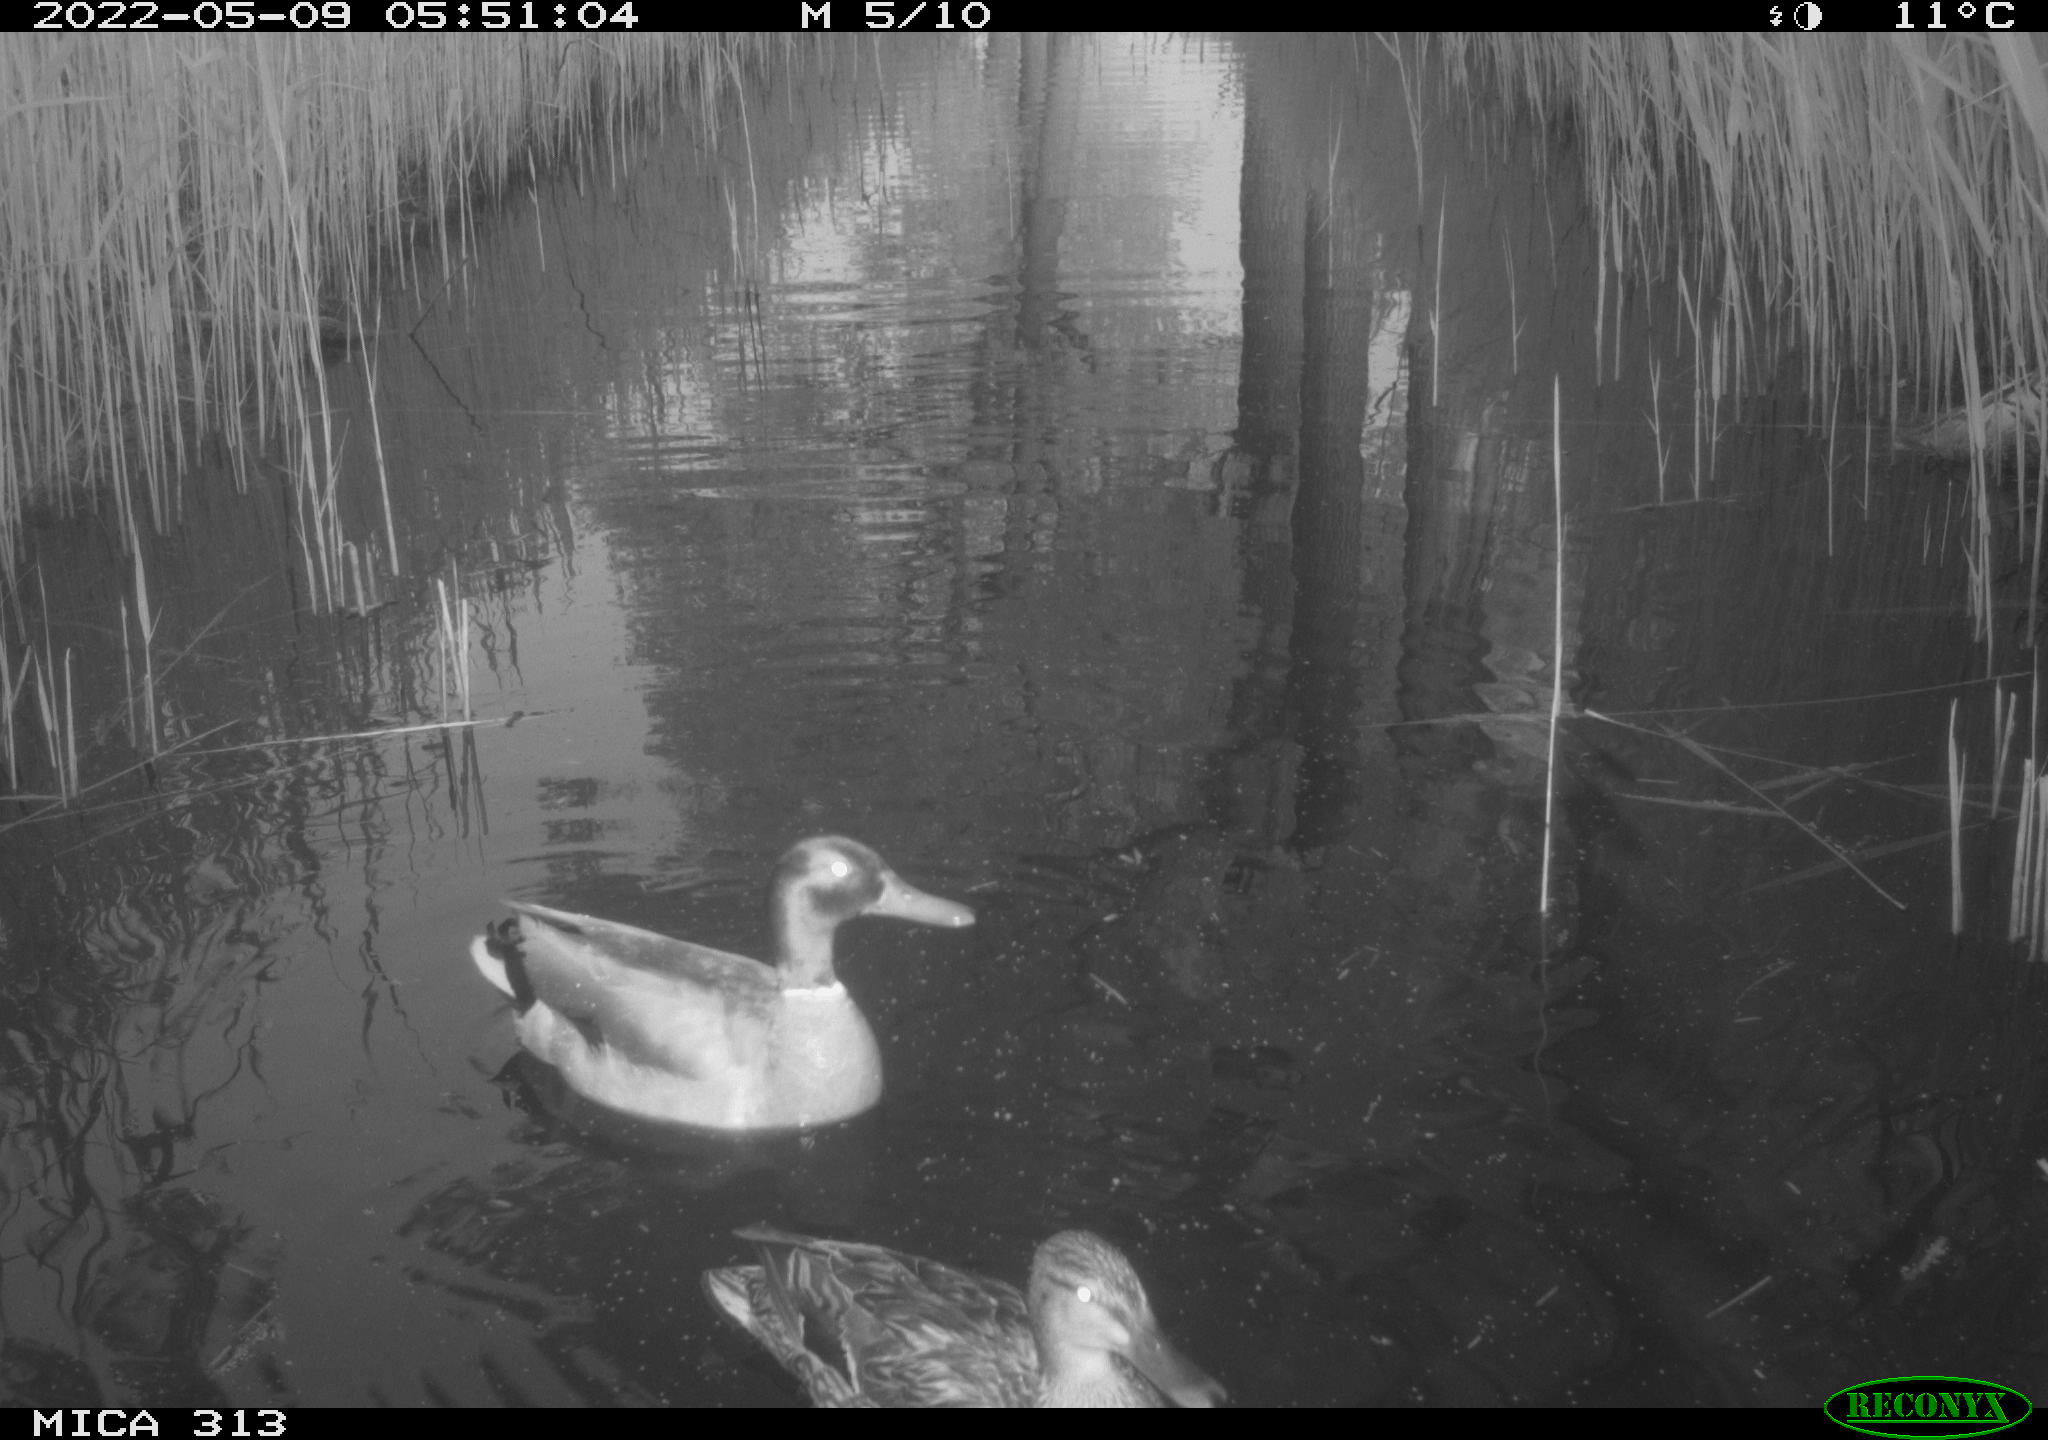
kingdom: Animalia
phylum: Chordata
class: Aves
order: Anseriformes
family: Anatidae
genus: Mareca
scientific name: Mareca strepera
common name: Gadwall
